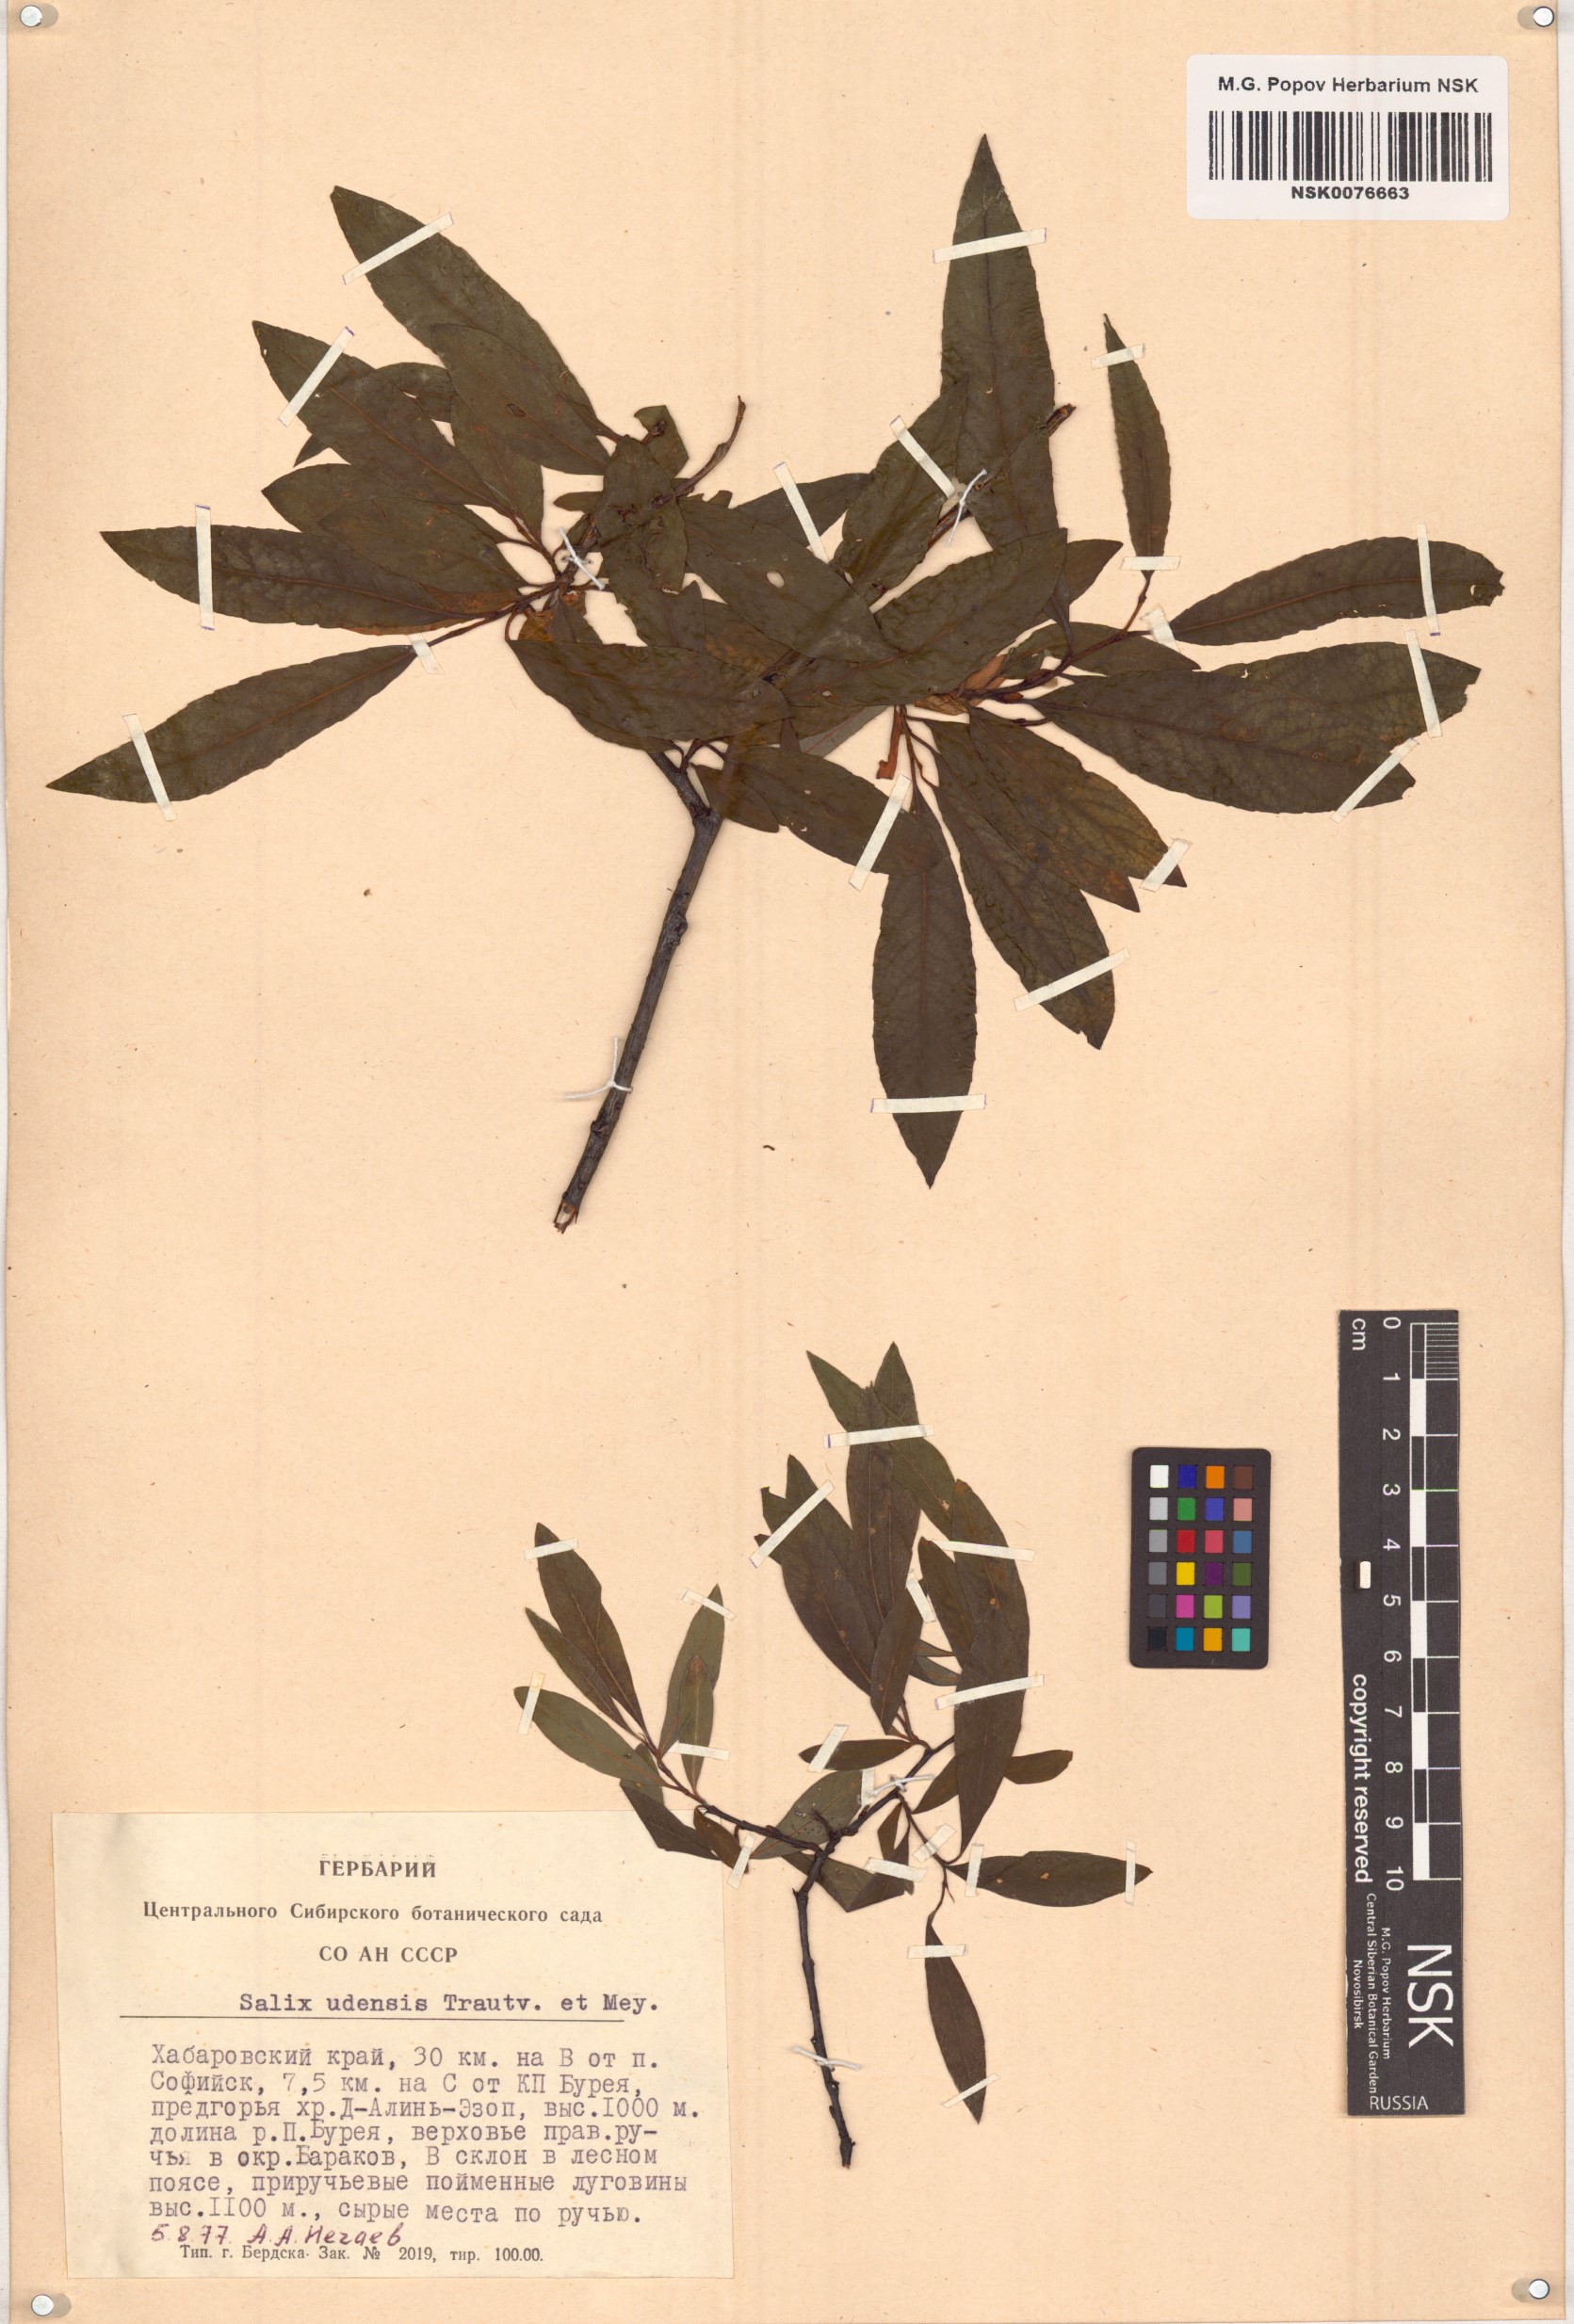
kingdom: Plantae
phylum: Tracheophyta
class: Magnoliopsida
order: Malpighiales
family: Salicaceae
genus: Salix
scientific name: Salix udensis
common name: Sachalin willow
